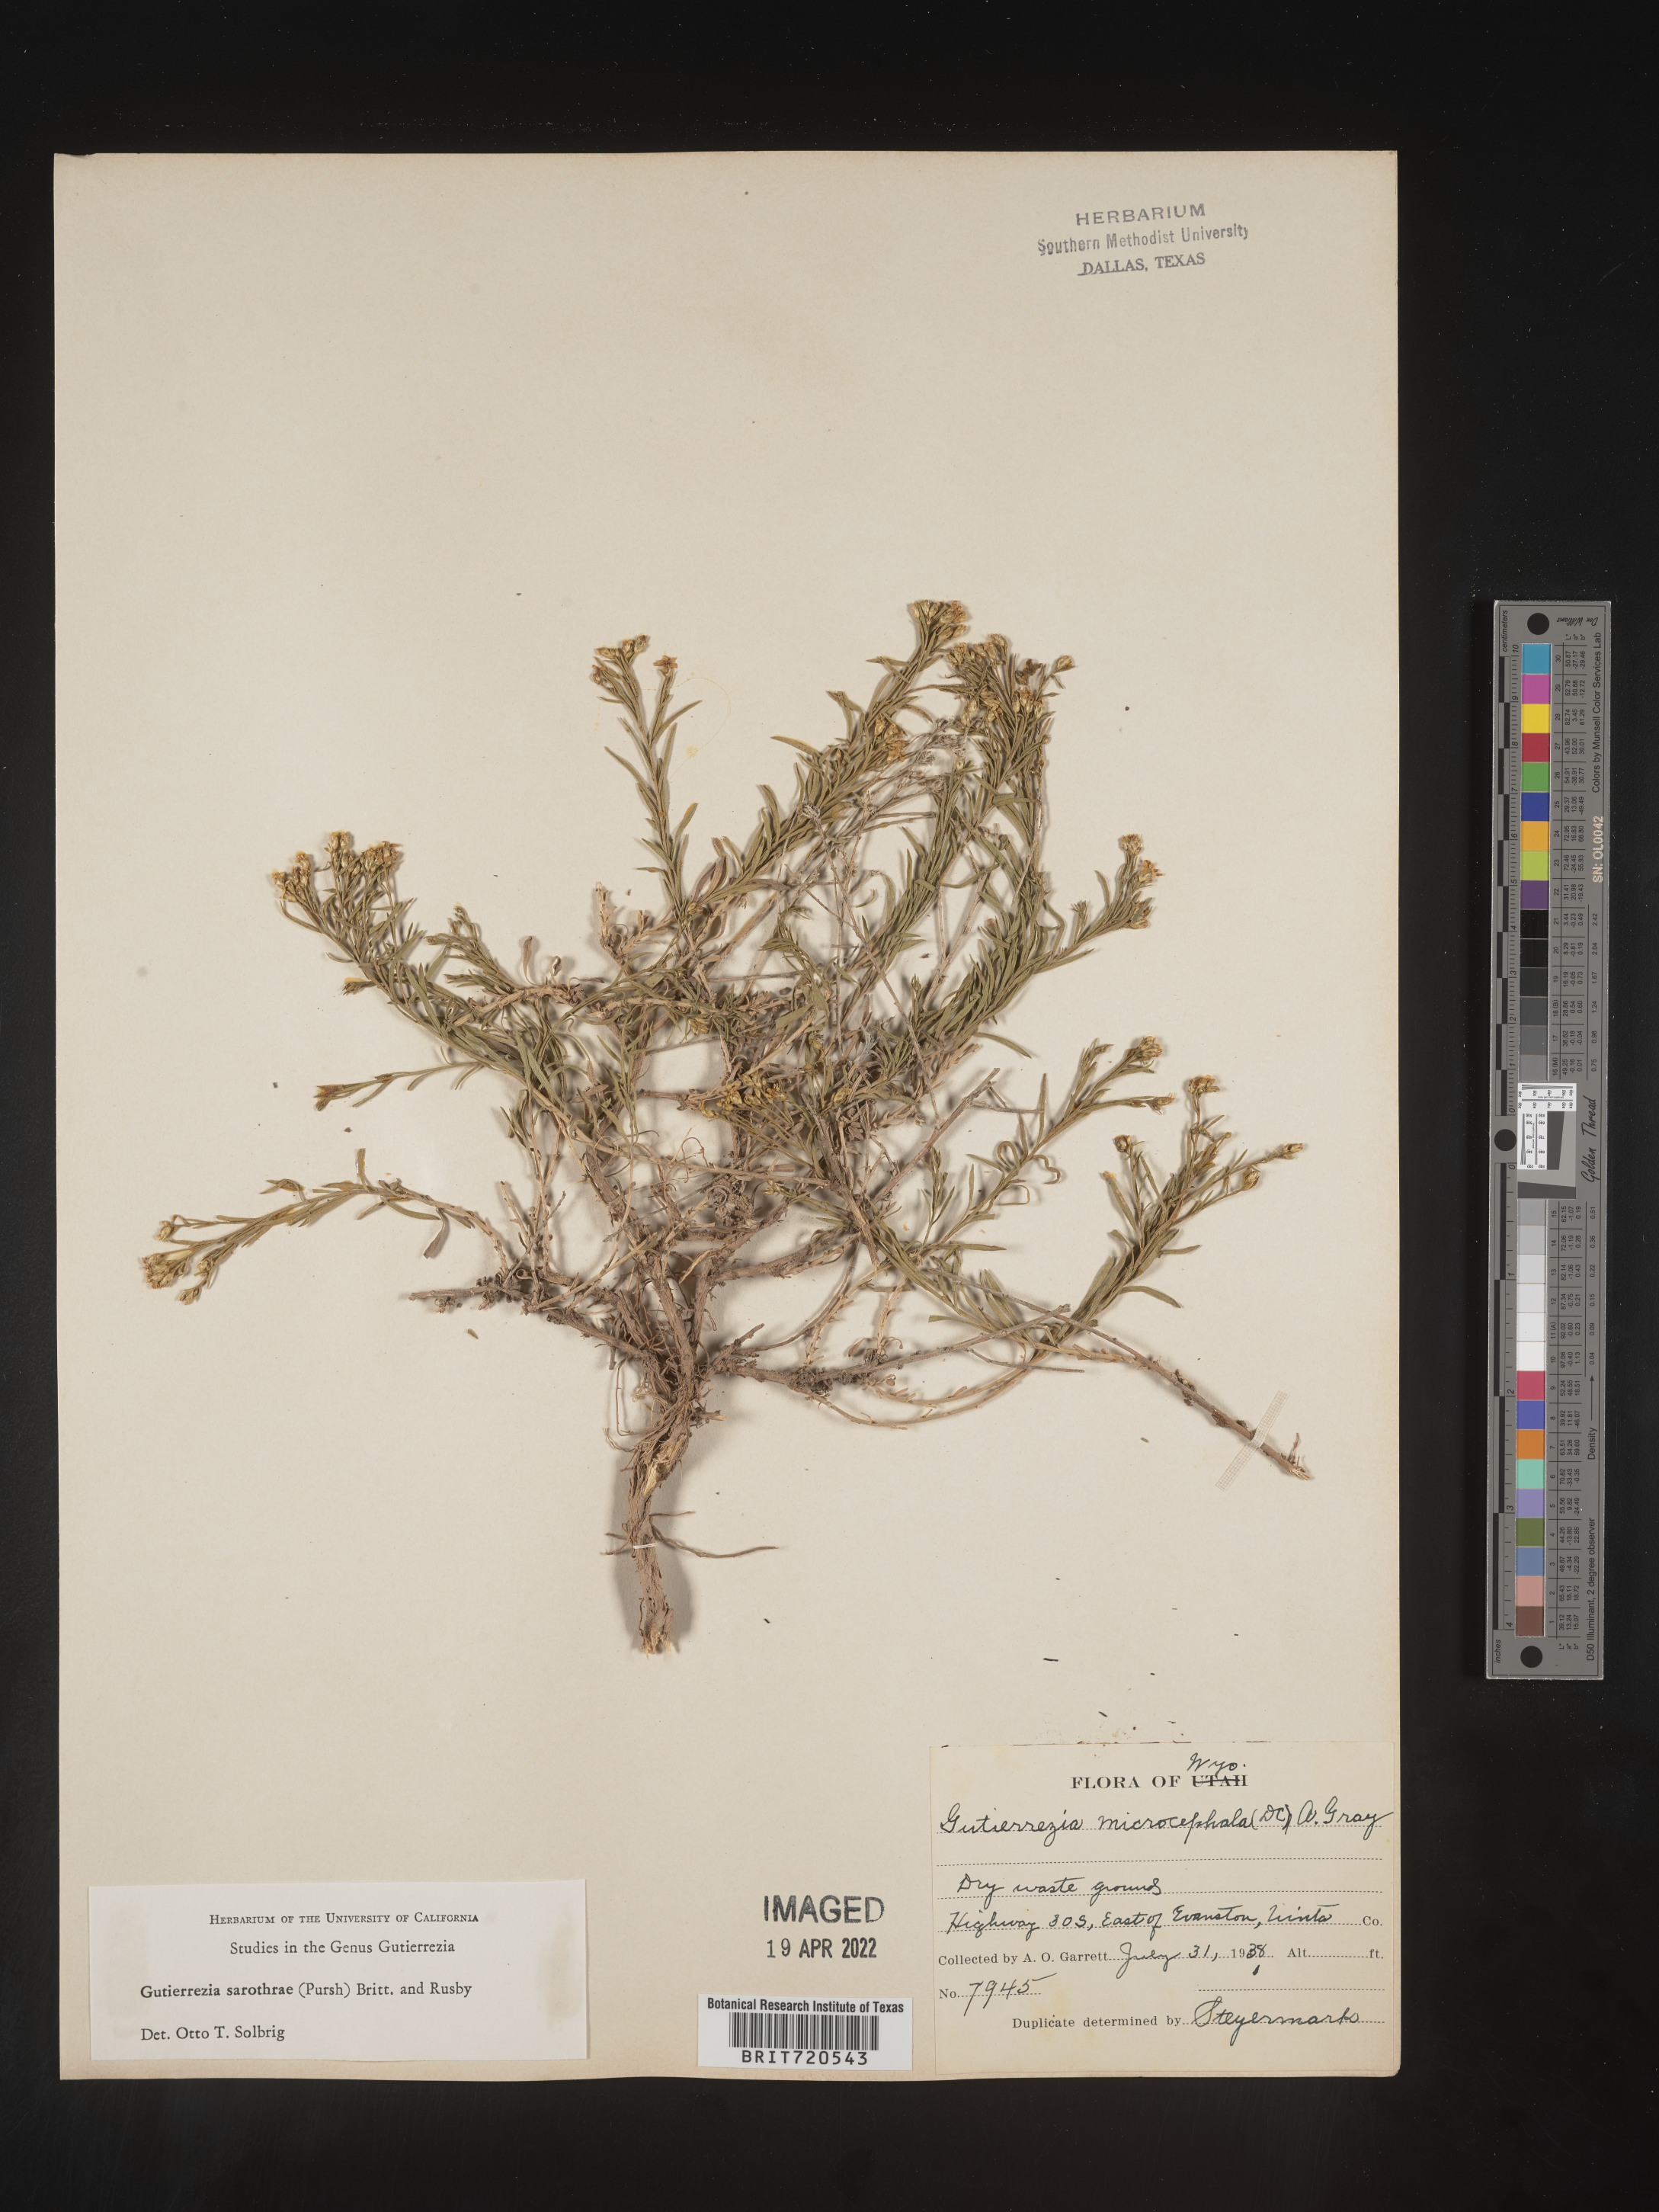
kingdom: Plantae
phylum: Tracheophyta
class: Magnoliopsida
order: Asterales
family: Asteraceae
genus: Gutierrezia
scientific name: Gutierrezia sarothrae
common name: Broom snakeweed
